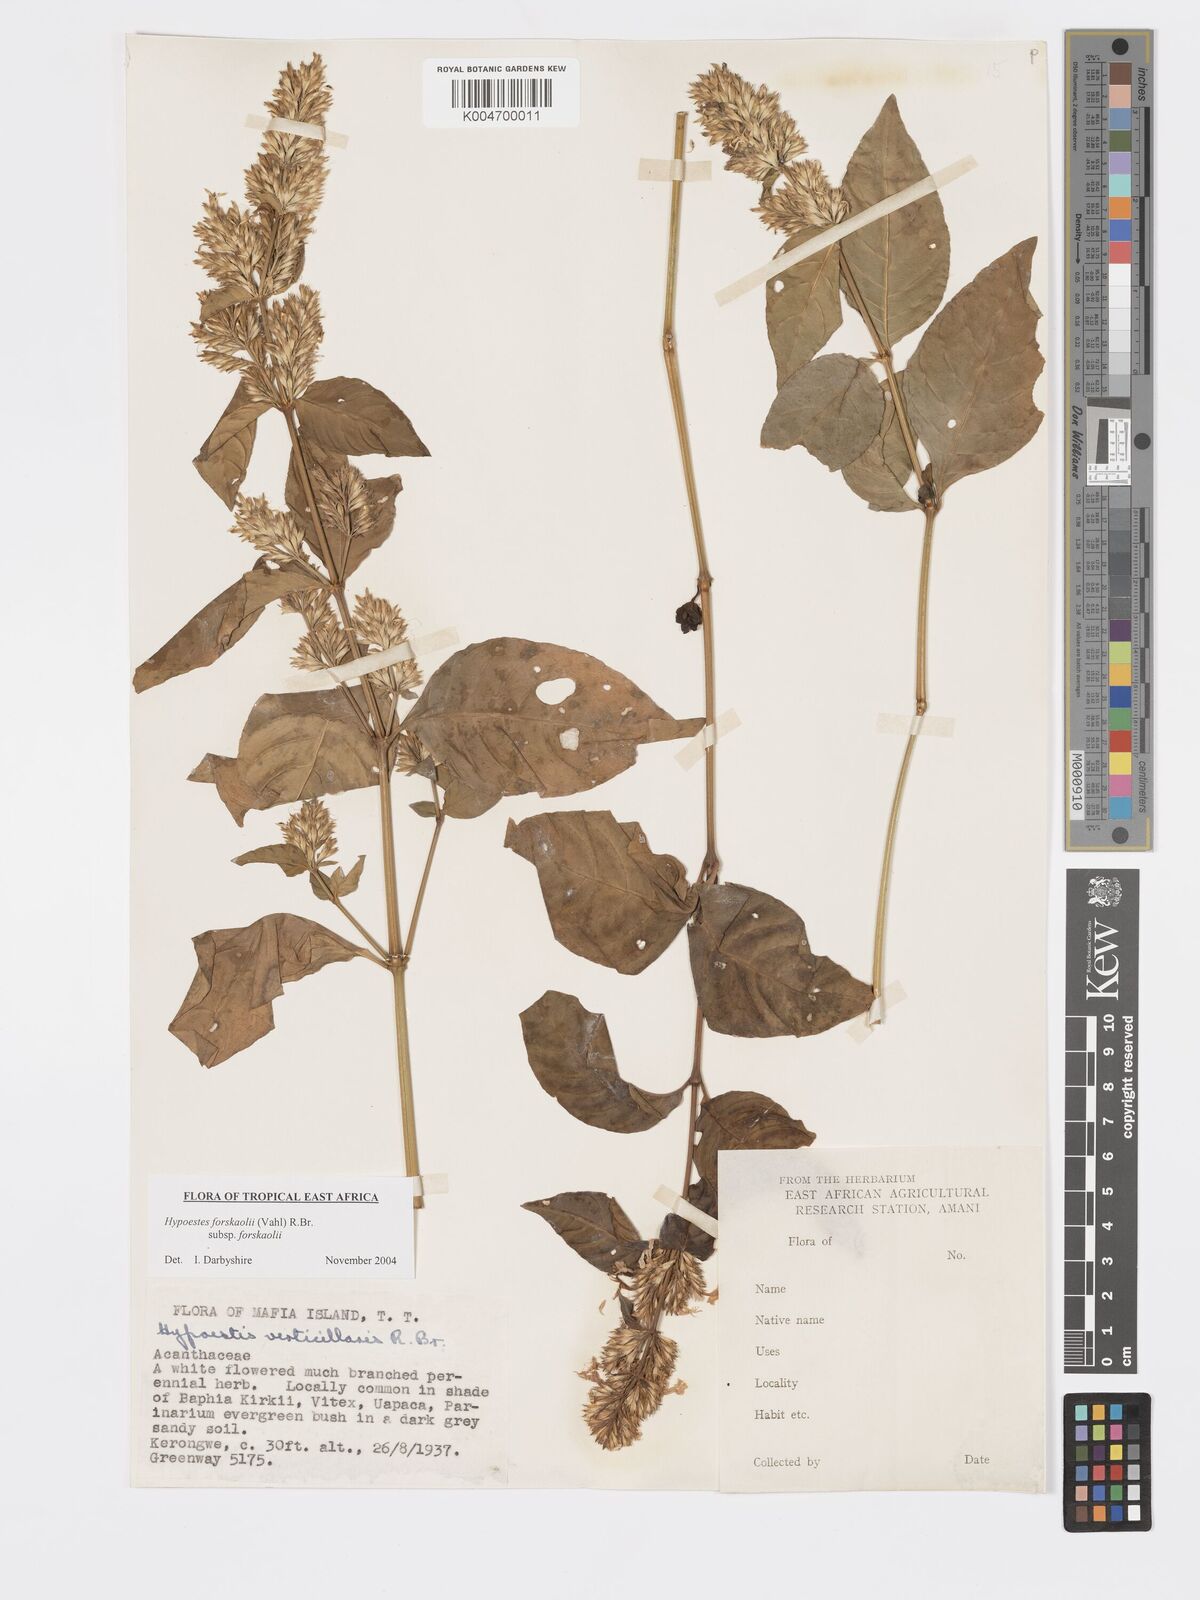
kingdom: Plantae
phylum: Tracheophyta
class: Magnoliopsida
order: Lamiales
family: Acanthaceae
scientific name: Acanthaceae
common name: Acanthaceae
